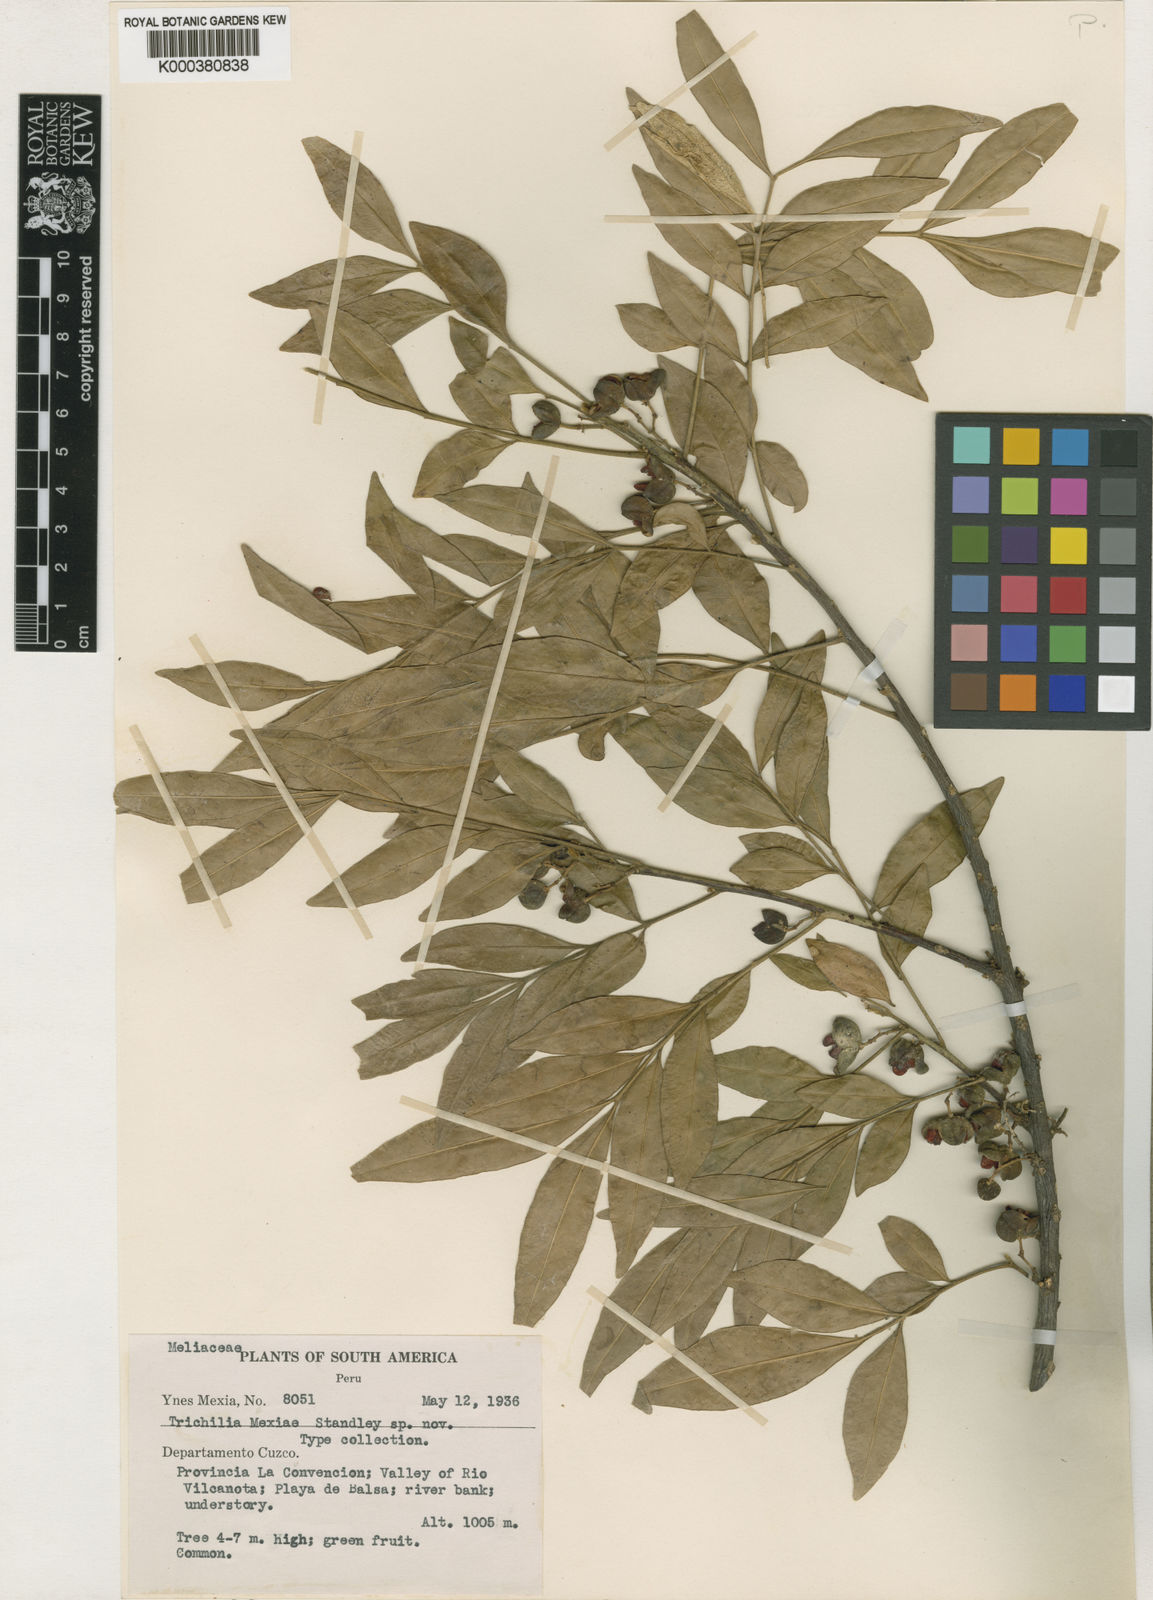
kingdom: Plantae
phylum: Tracheophyta
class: Magnoliopsida
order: Sapindales
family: Meliaceae
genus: Trichilia
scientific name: Trichilia havanensis
